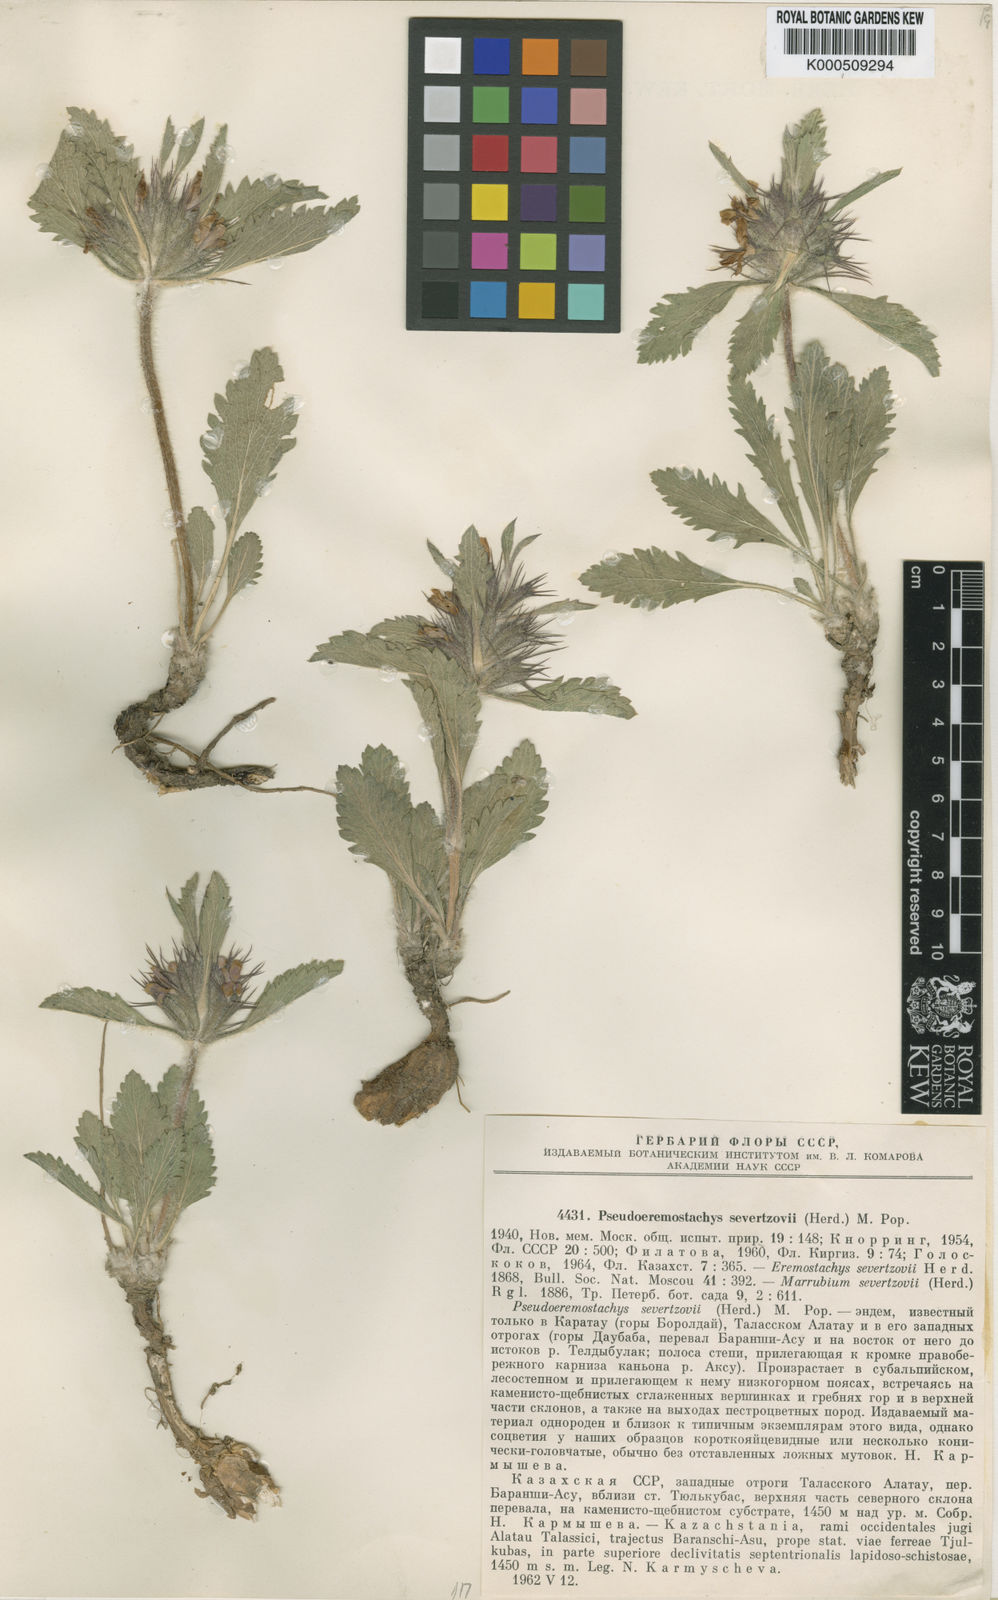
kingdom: Plantae
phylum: Tracheophyta
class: Magnoliopsida
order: Lamiales
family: Lamiaceae
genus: Phlomoides
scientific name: Phlomoides
